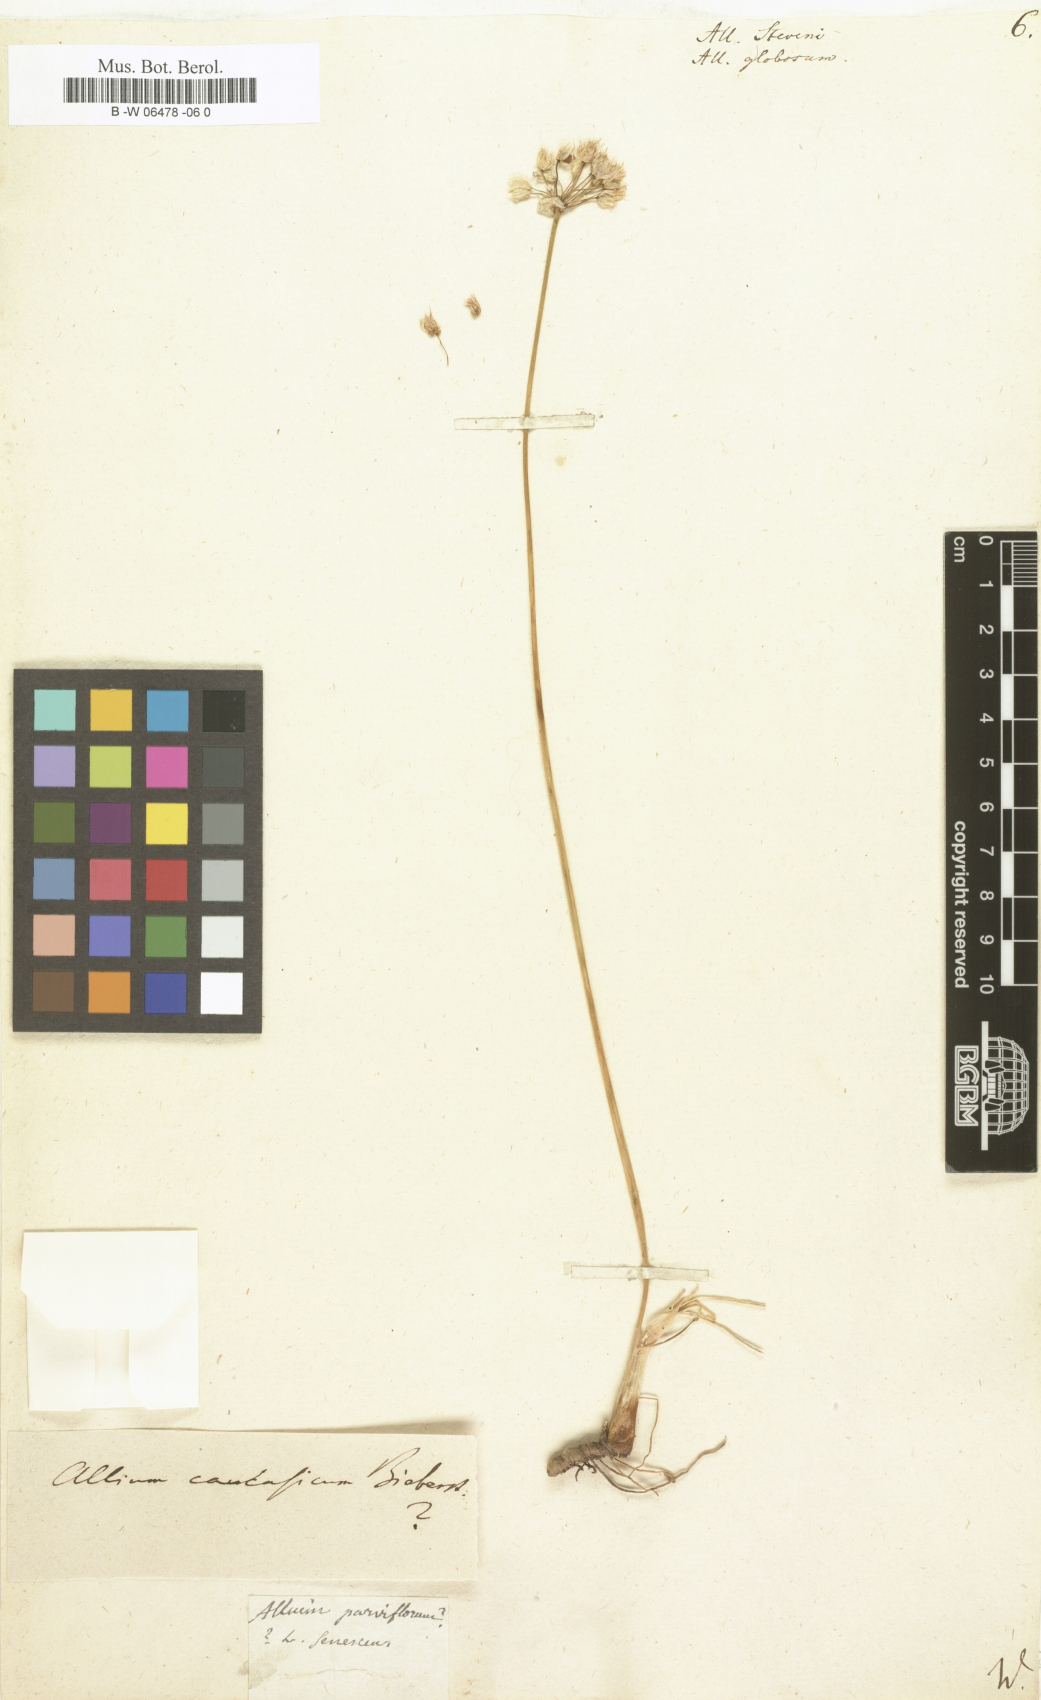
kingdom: Plantae
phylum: Tracheophyta
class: Liliopsida
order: Asparagales
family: Amaryllidaceae
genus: Allium
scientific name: Allium saxatile
